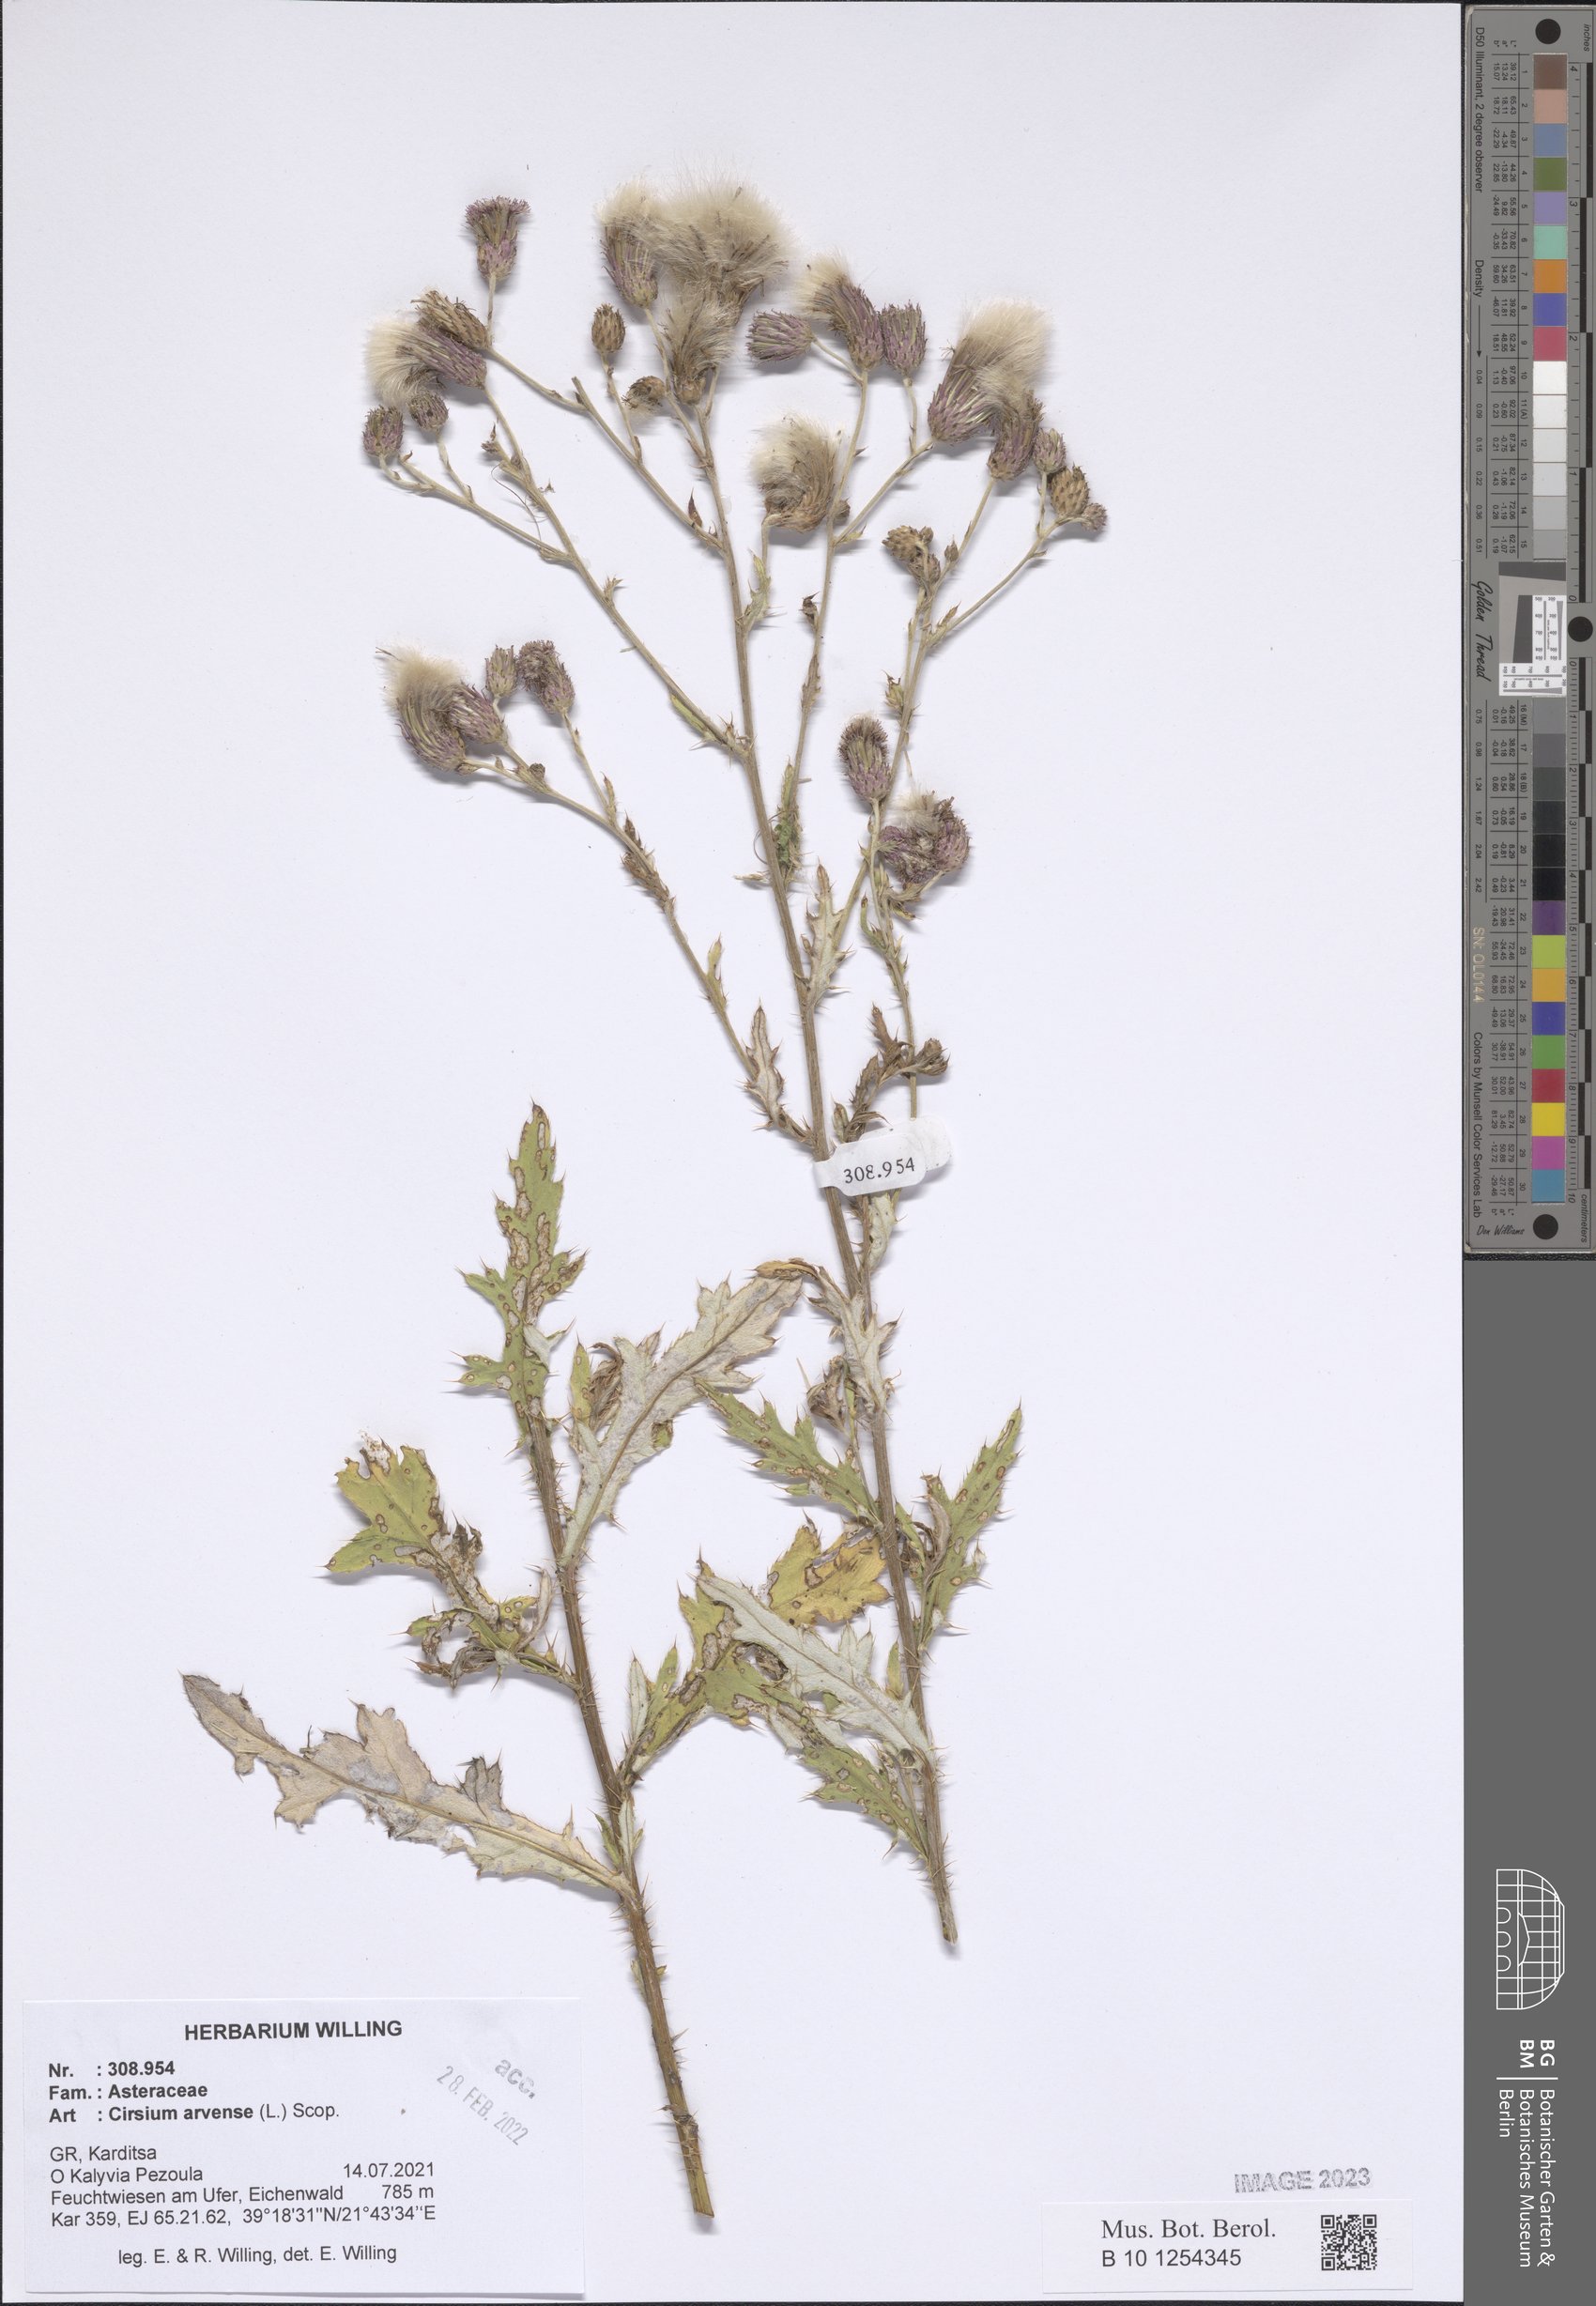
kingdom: Plantae
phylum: Tracheophyta
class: Magnoliopsida
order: Asterales
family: Asteraceae
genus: Cirsium
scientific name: Cirsium arvense
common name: Creeping thistle
